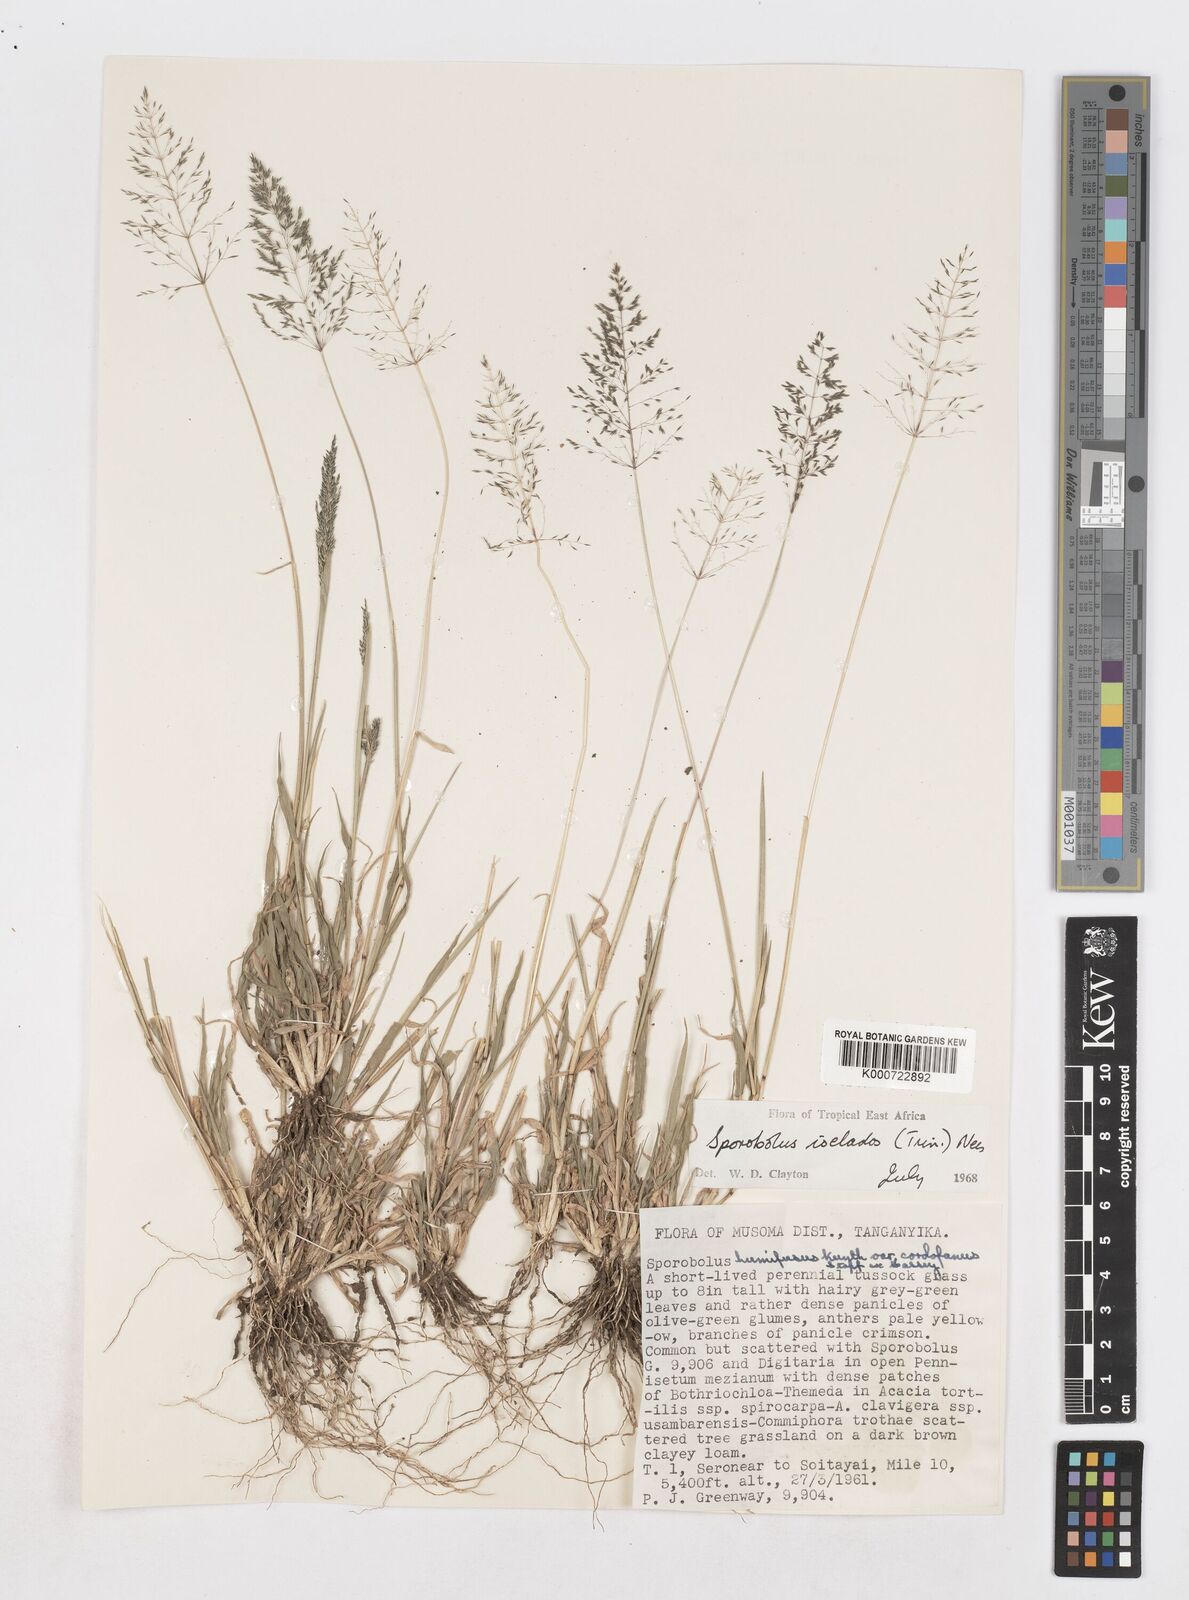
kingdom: Plantae
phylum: Tracheophyta
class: Liliopsida
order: Poales
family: Poaceae
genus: Sporobolus
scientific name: Sporobolus ioclados
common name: Pan dropseed
